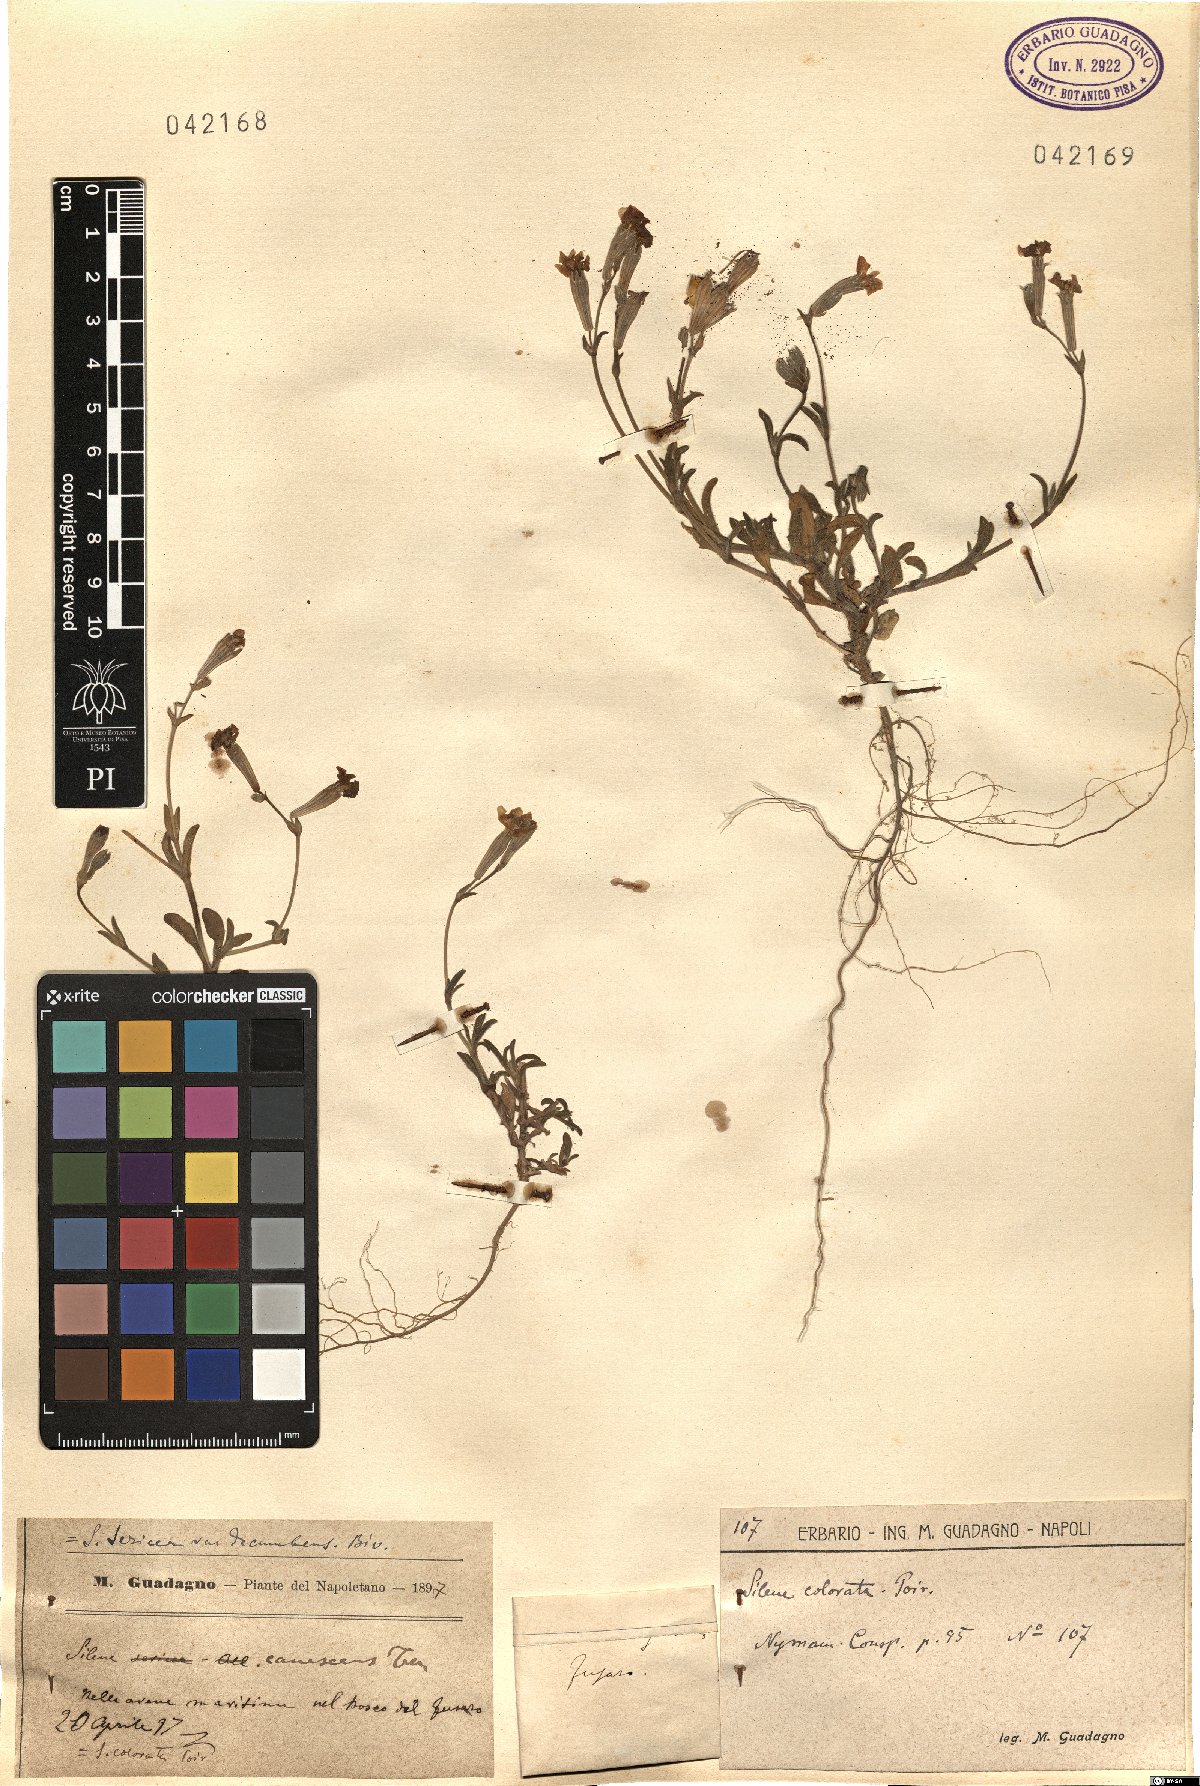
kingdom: Plantae
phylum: Tracheophyta
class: Magnoliopsida
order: Caryophyllales
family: Caryophyllaceae
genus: Silene
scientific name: Silene colorata
